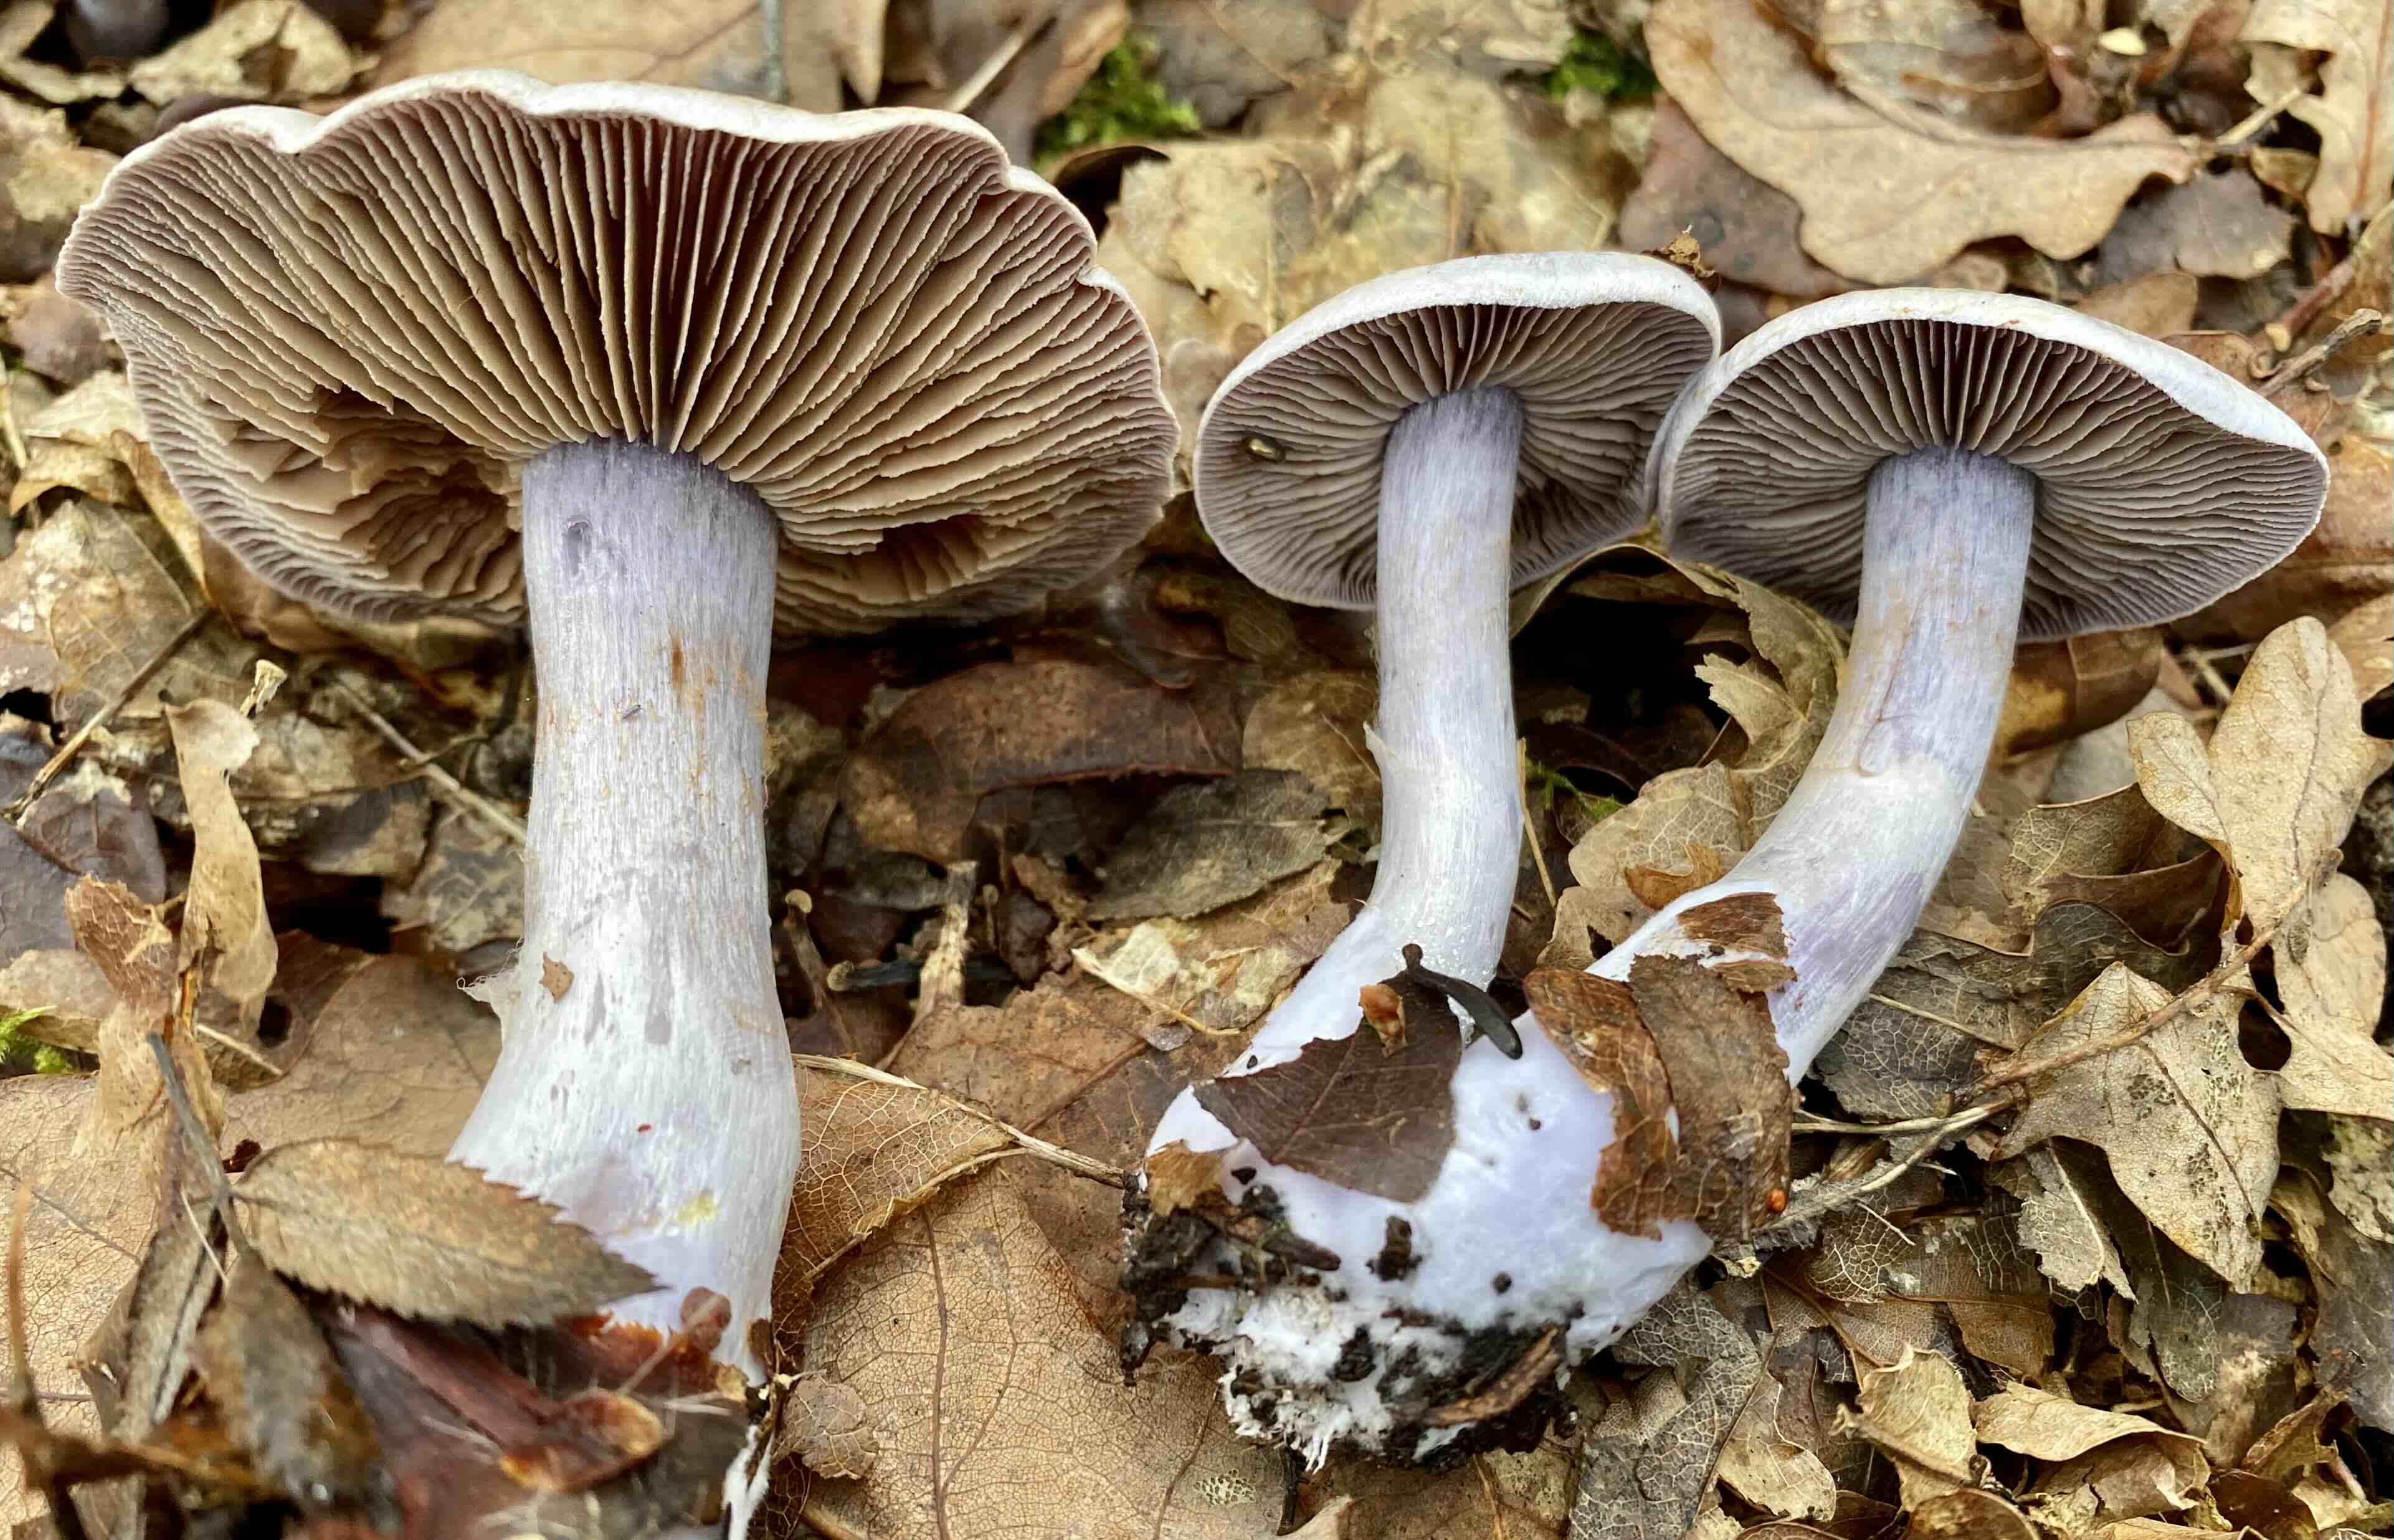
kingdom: Fungi
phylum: Basidiomycota
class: Agaricomycetes
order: Agaricales
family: Cortinariaceae
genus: Cortinarius
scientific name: Cortinarius alboviolaceus
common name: lysviolet slørhat
